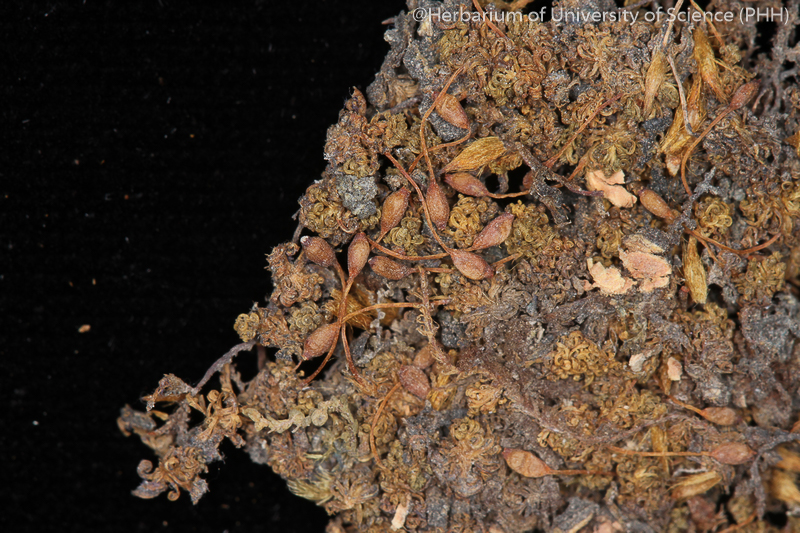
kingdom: Plantae
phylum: Bryophyta
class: Bryopsida
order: Orthotrichales
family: Orthotrichaceae
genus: Macromitrium
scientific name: Macromitrium japonicum
